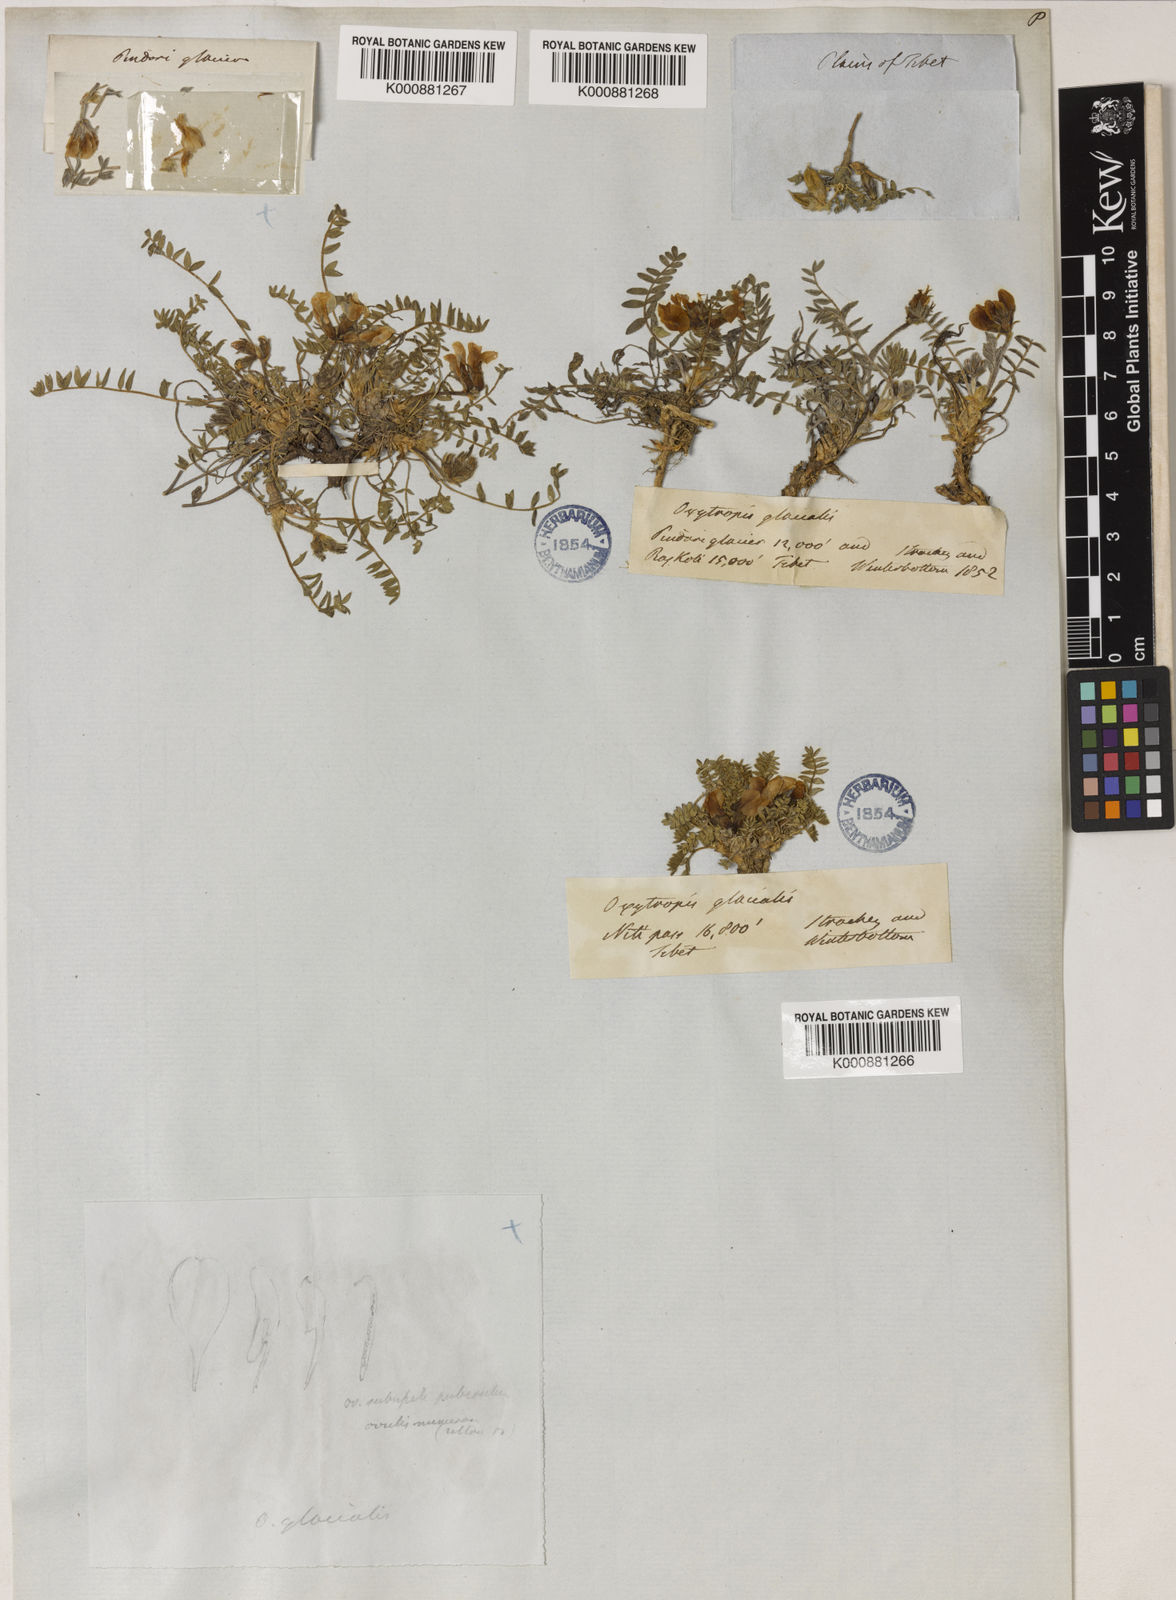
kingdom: Plantae
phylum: Tracheophyta
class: Magnoliopsida
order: Fabales
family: Fabaceae
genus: Oxytropis
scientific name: Oxytropis humifusa
